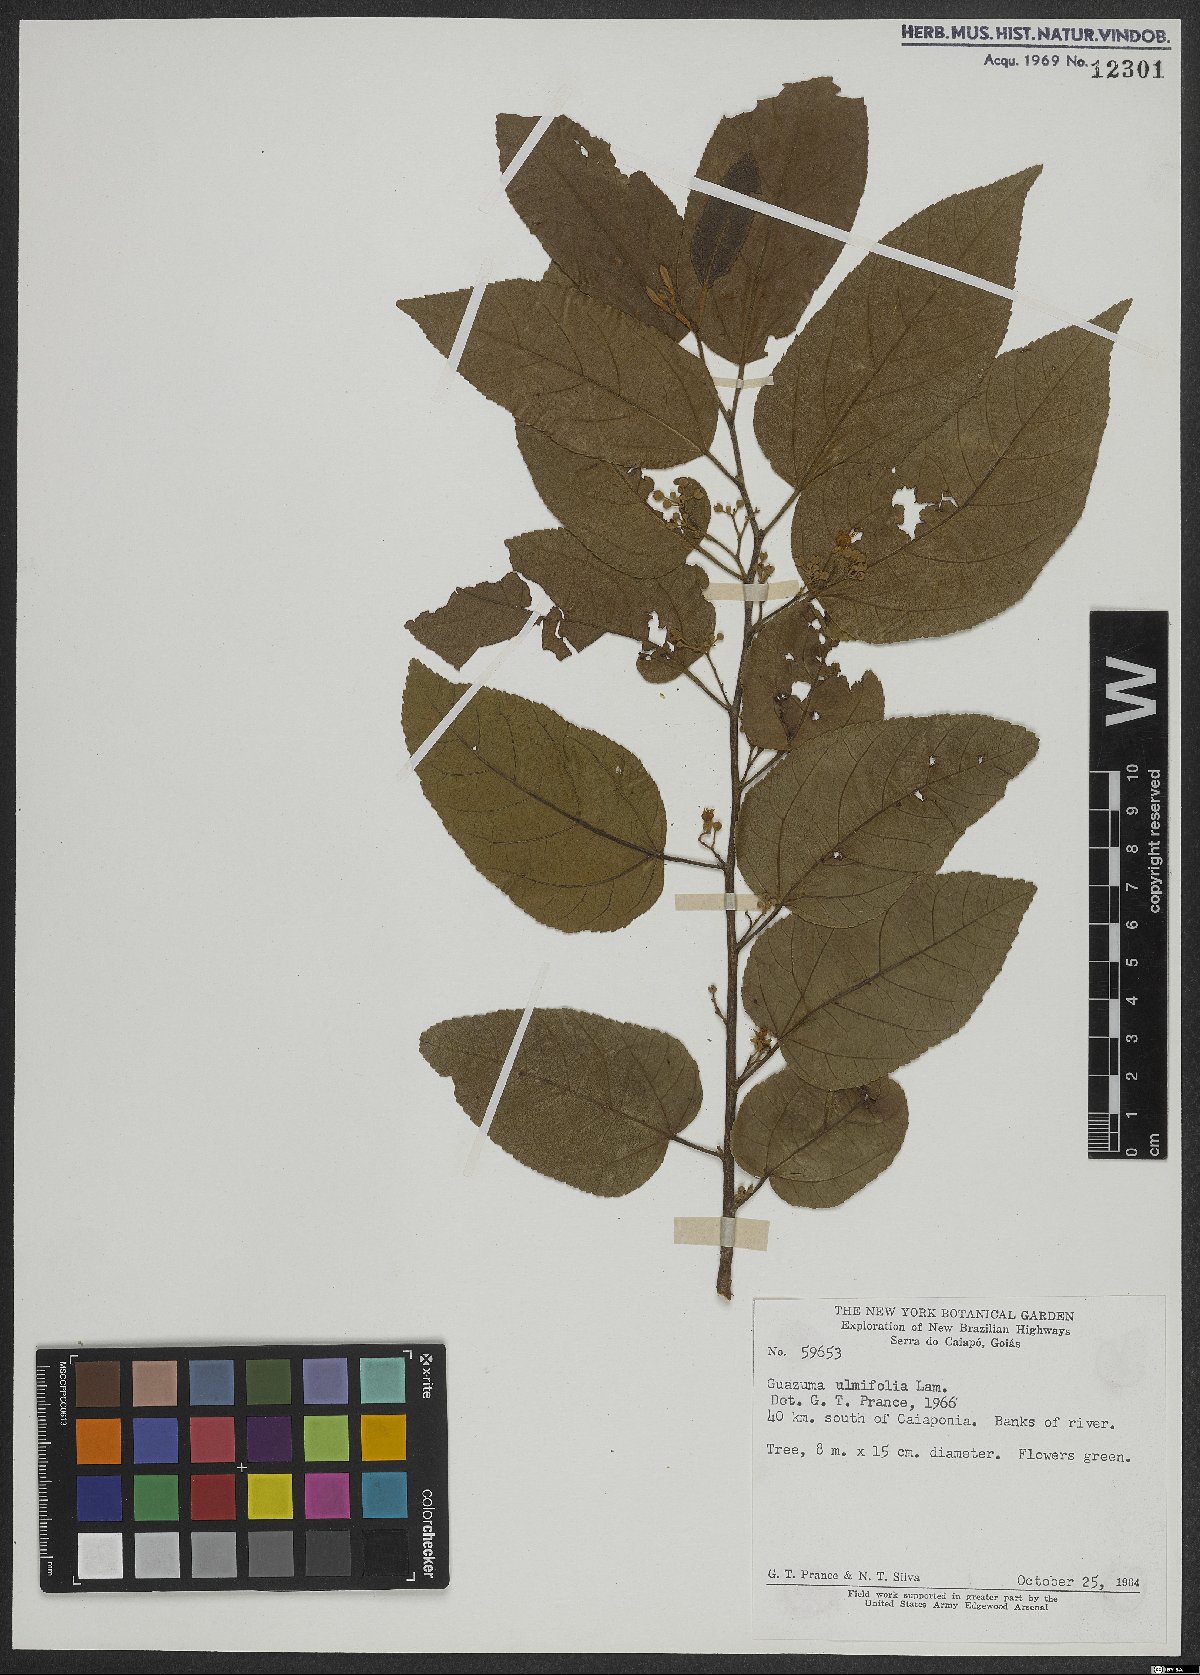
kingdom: Plantae
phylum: Tracheophyta
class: Magnoliopsida
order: Malvales
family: Malvaceae
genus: Guazuma
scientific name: Guazuma ulmifolia
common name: Bastard-cedar
